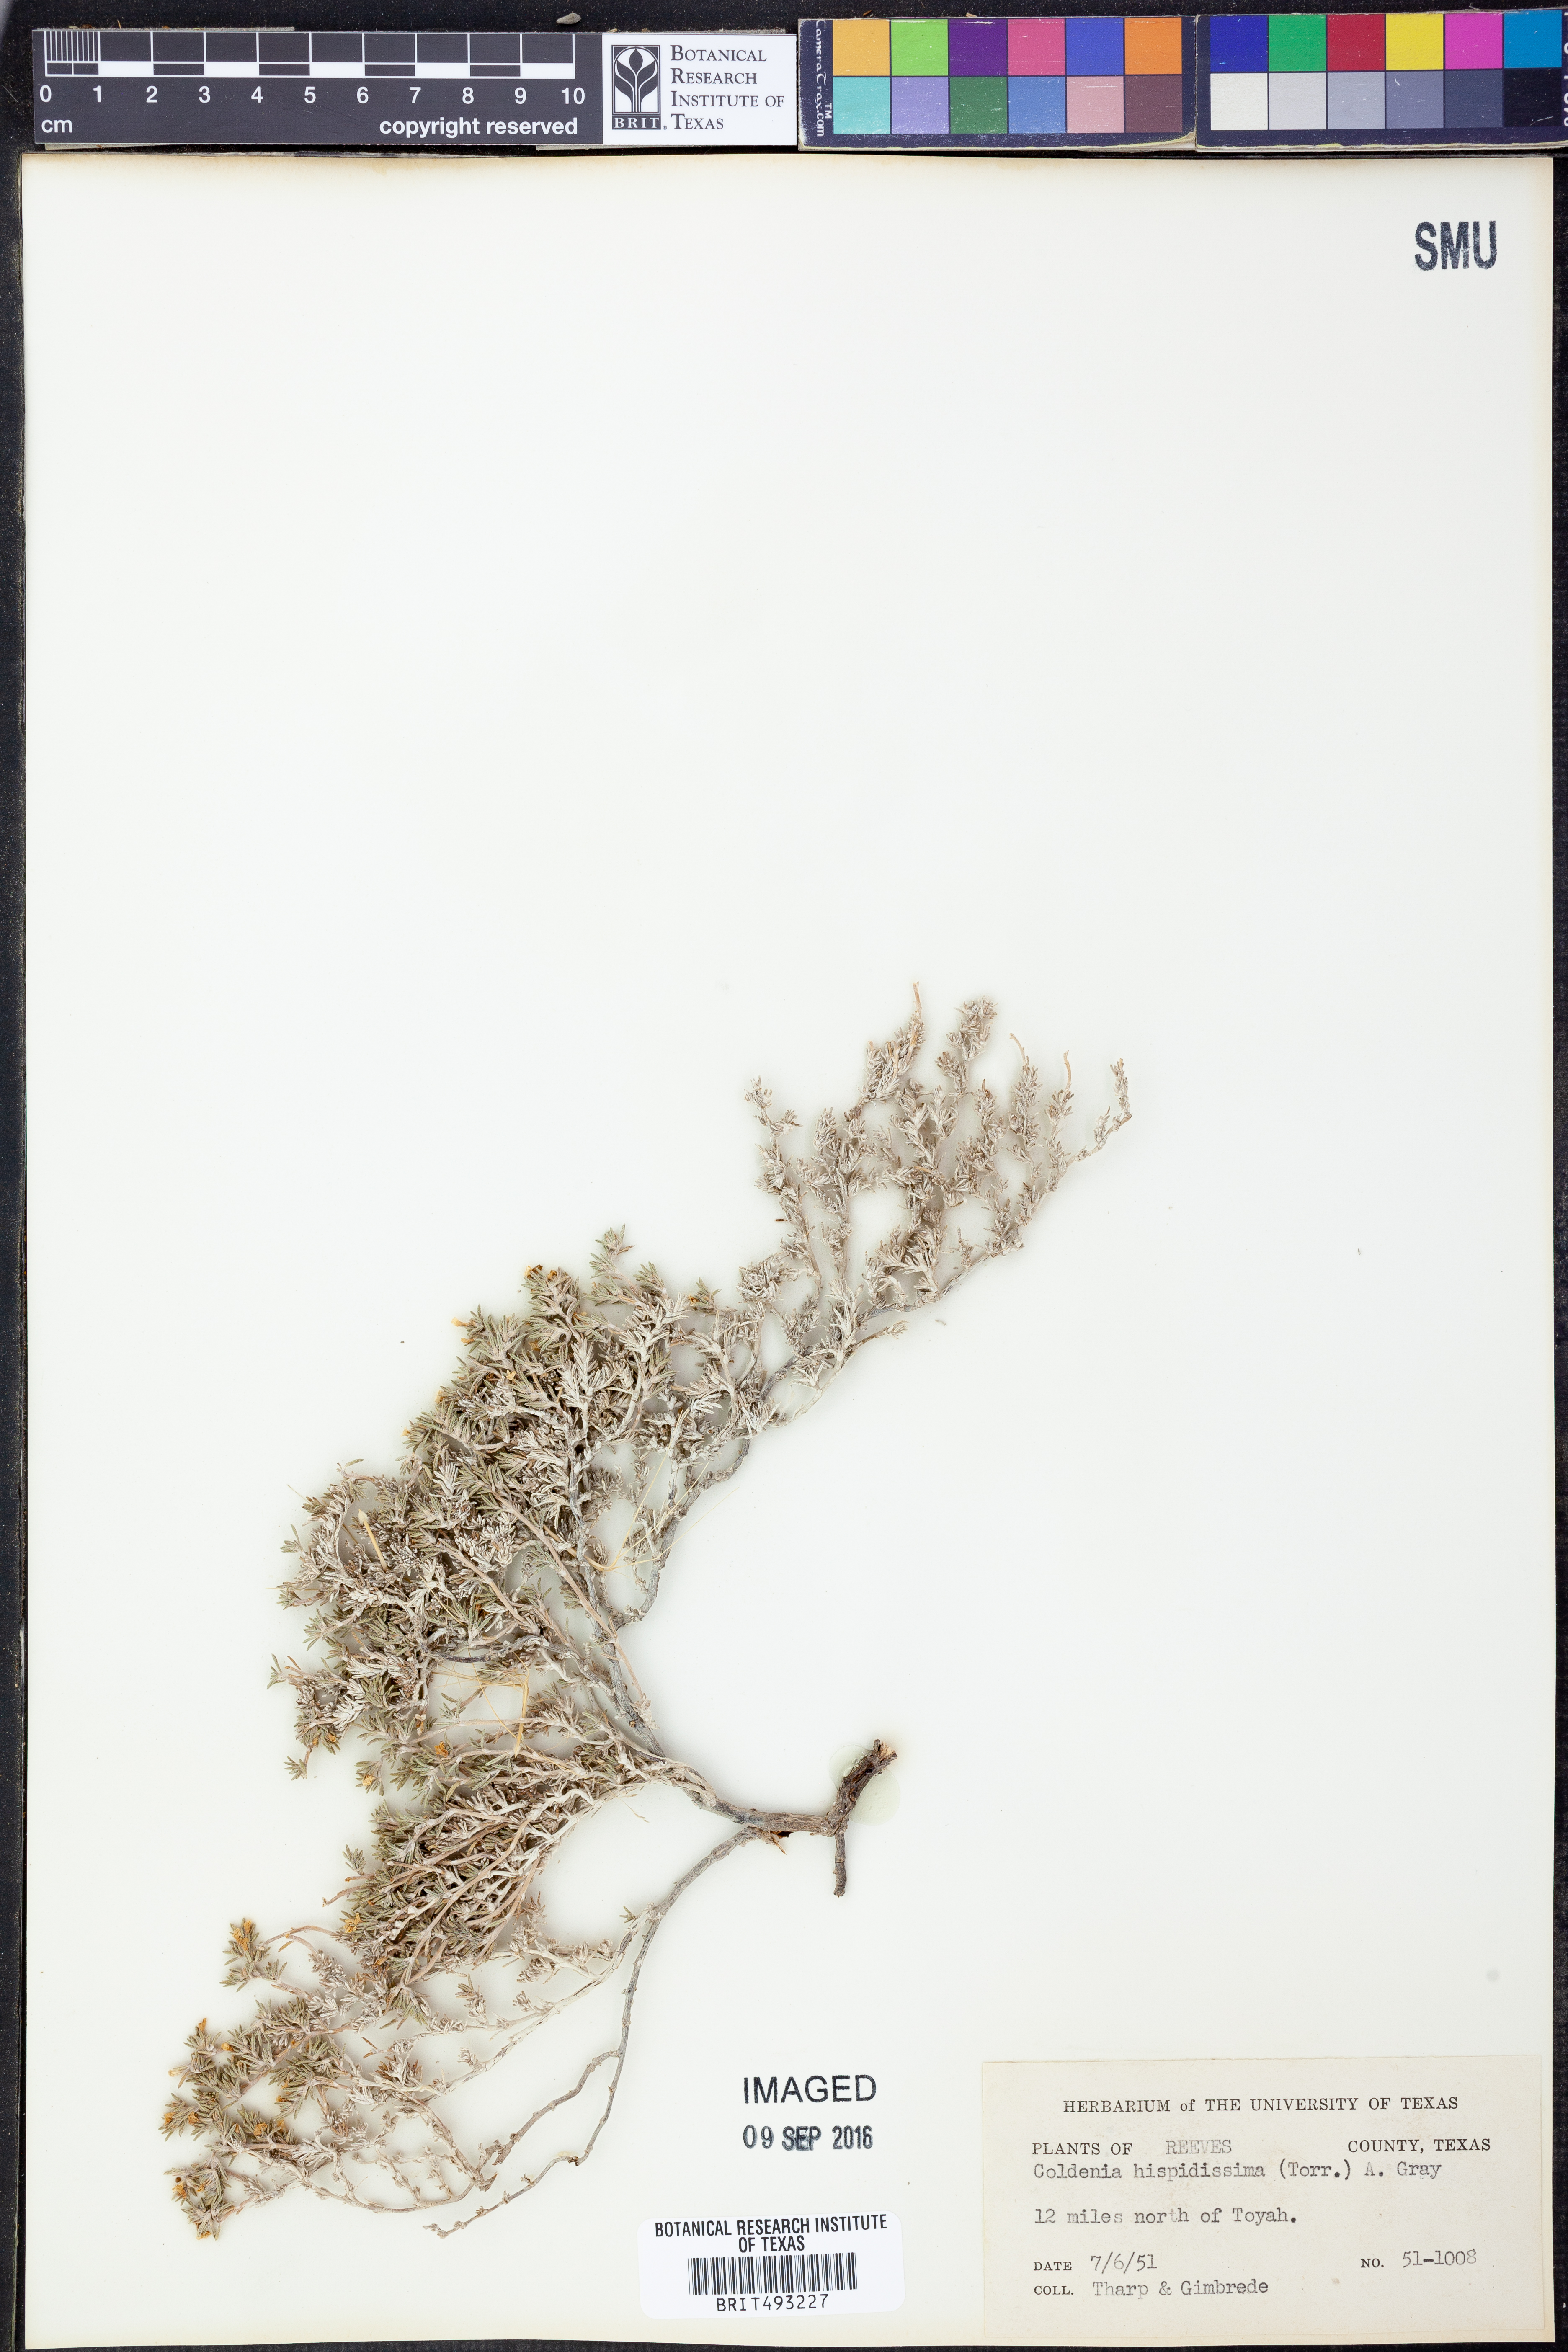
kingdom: Plantae
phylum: Tracheophyta
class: Magnoliopsida
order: Boraginales
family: Ehretiaceae
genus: Tiquilia
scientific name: Tiquilia hispidissima
